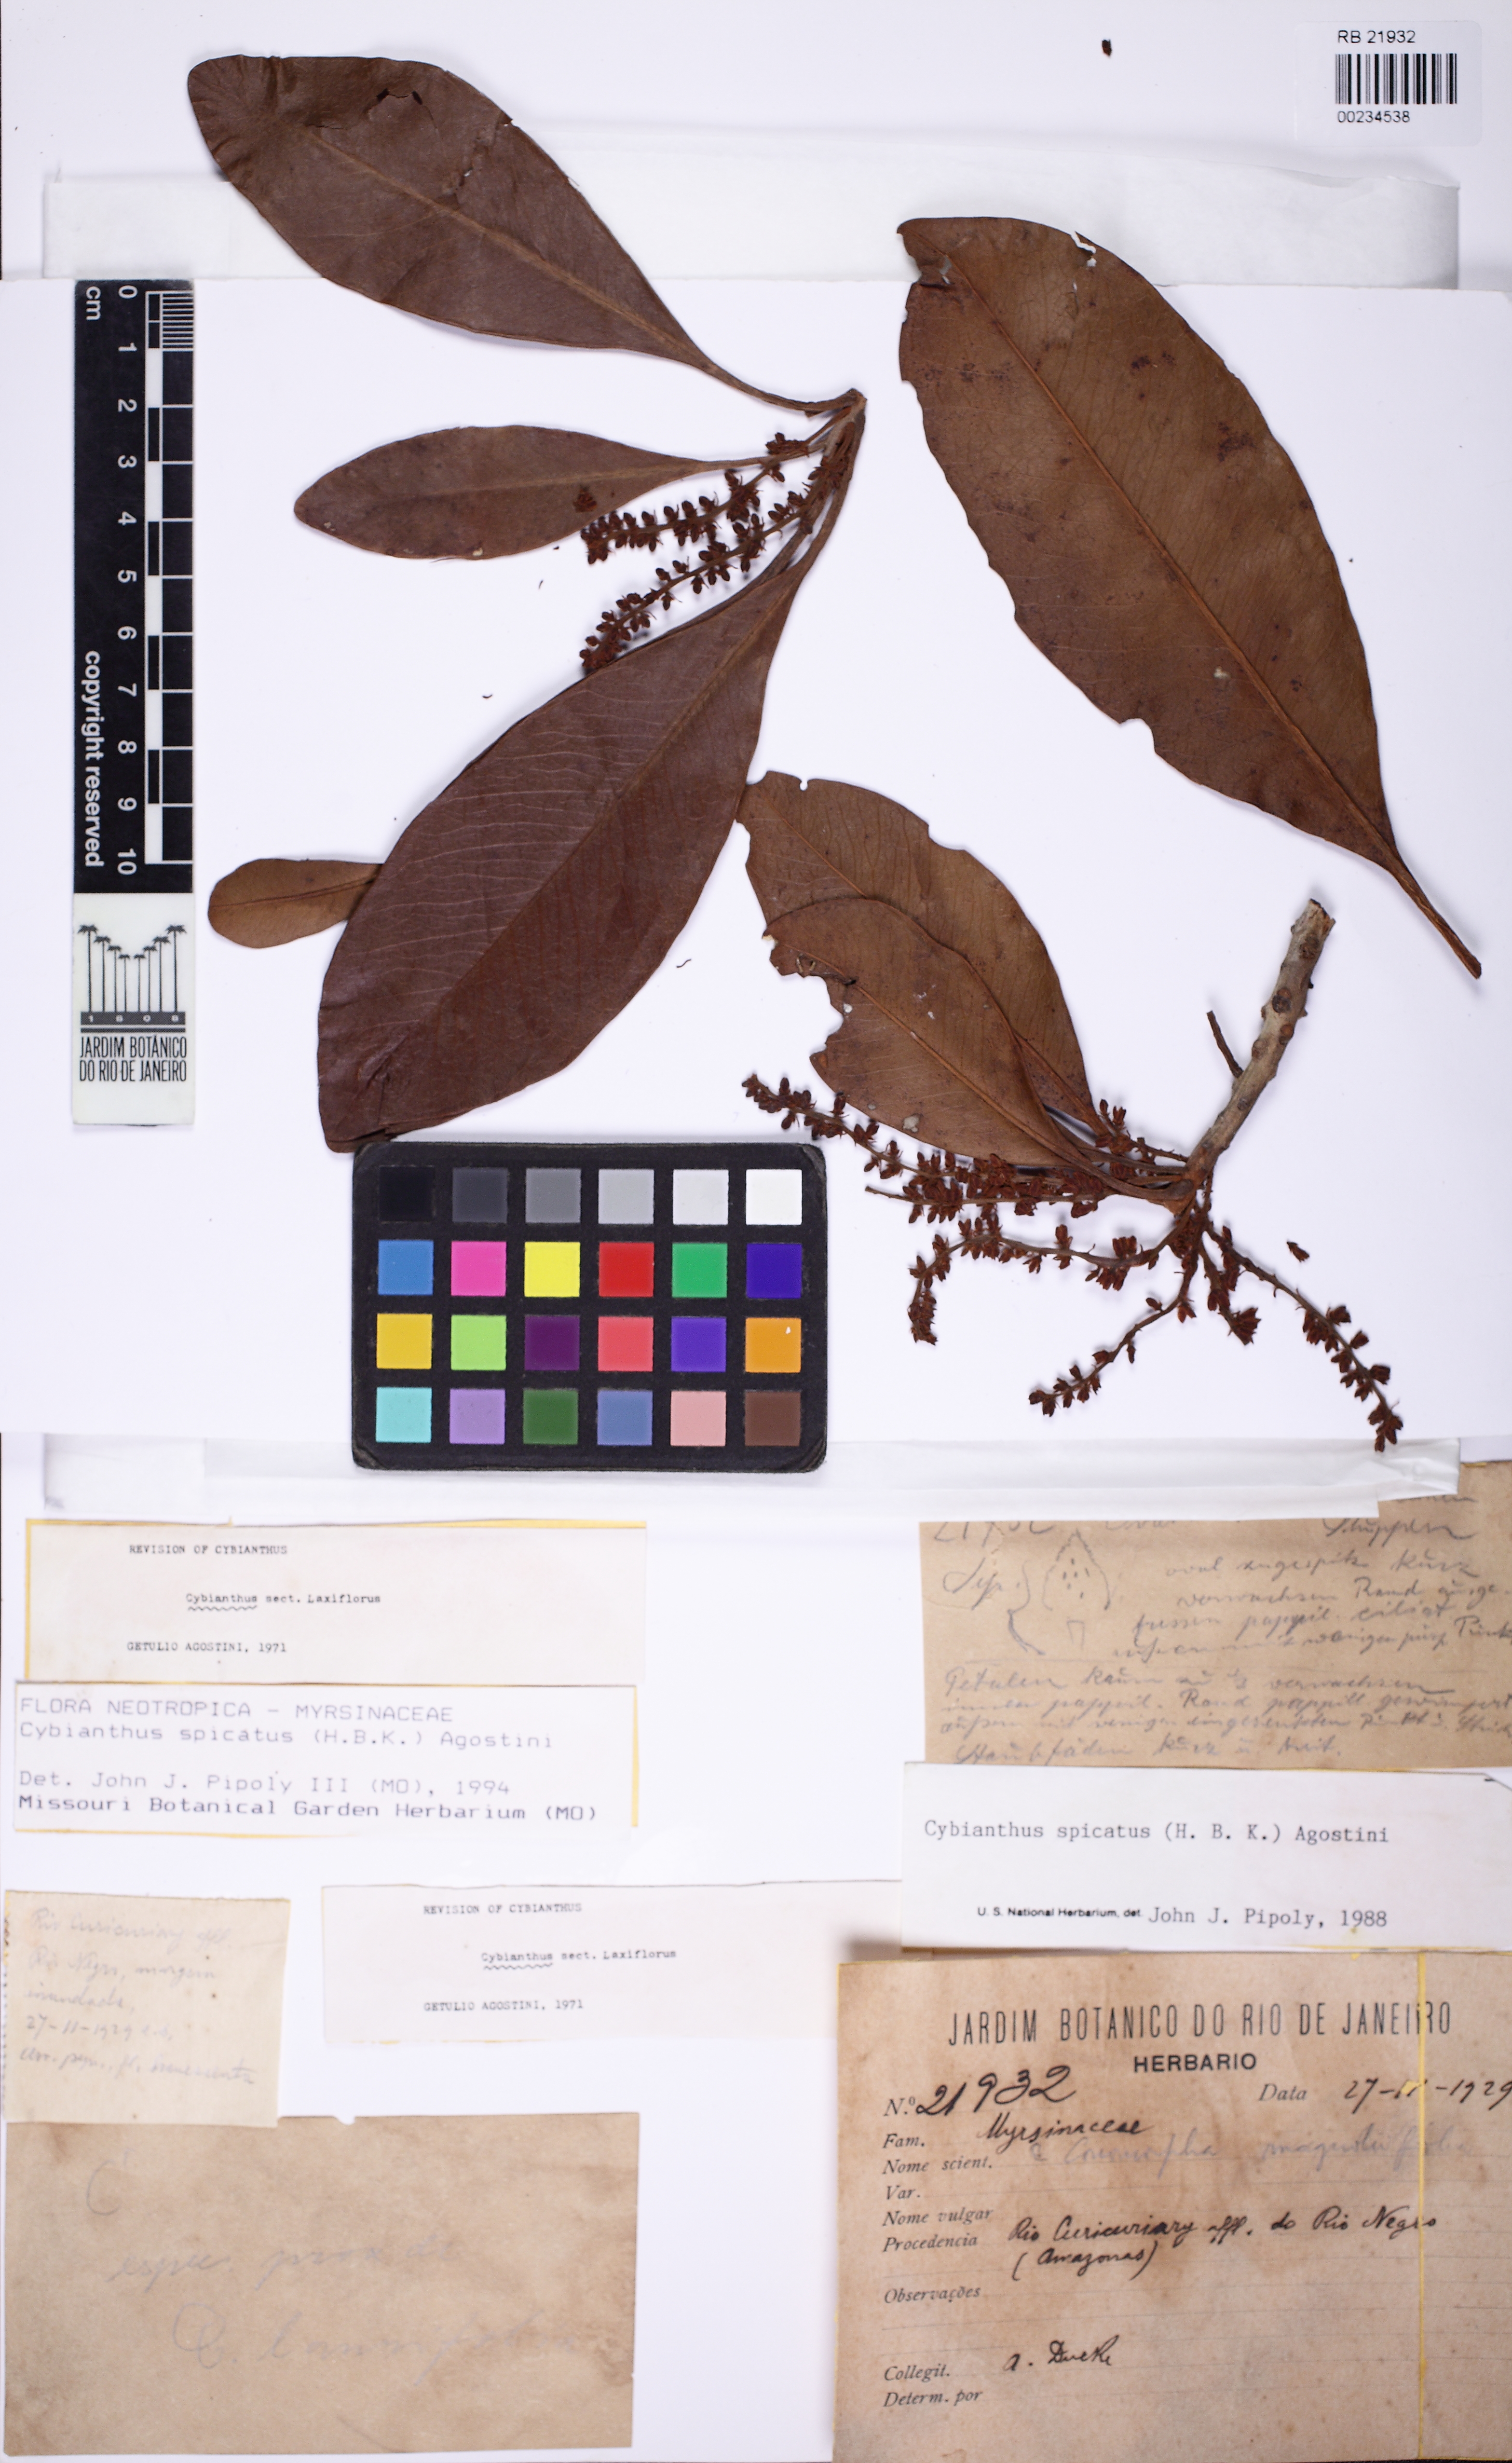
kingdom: Plantae
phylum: Tracheophyta
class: Magnoliopsida
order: Ericales
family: Primulaceae
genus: Cybianthus
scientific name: Cybianthus spicatus
